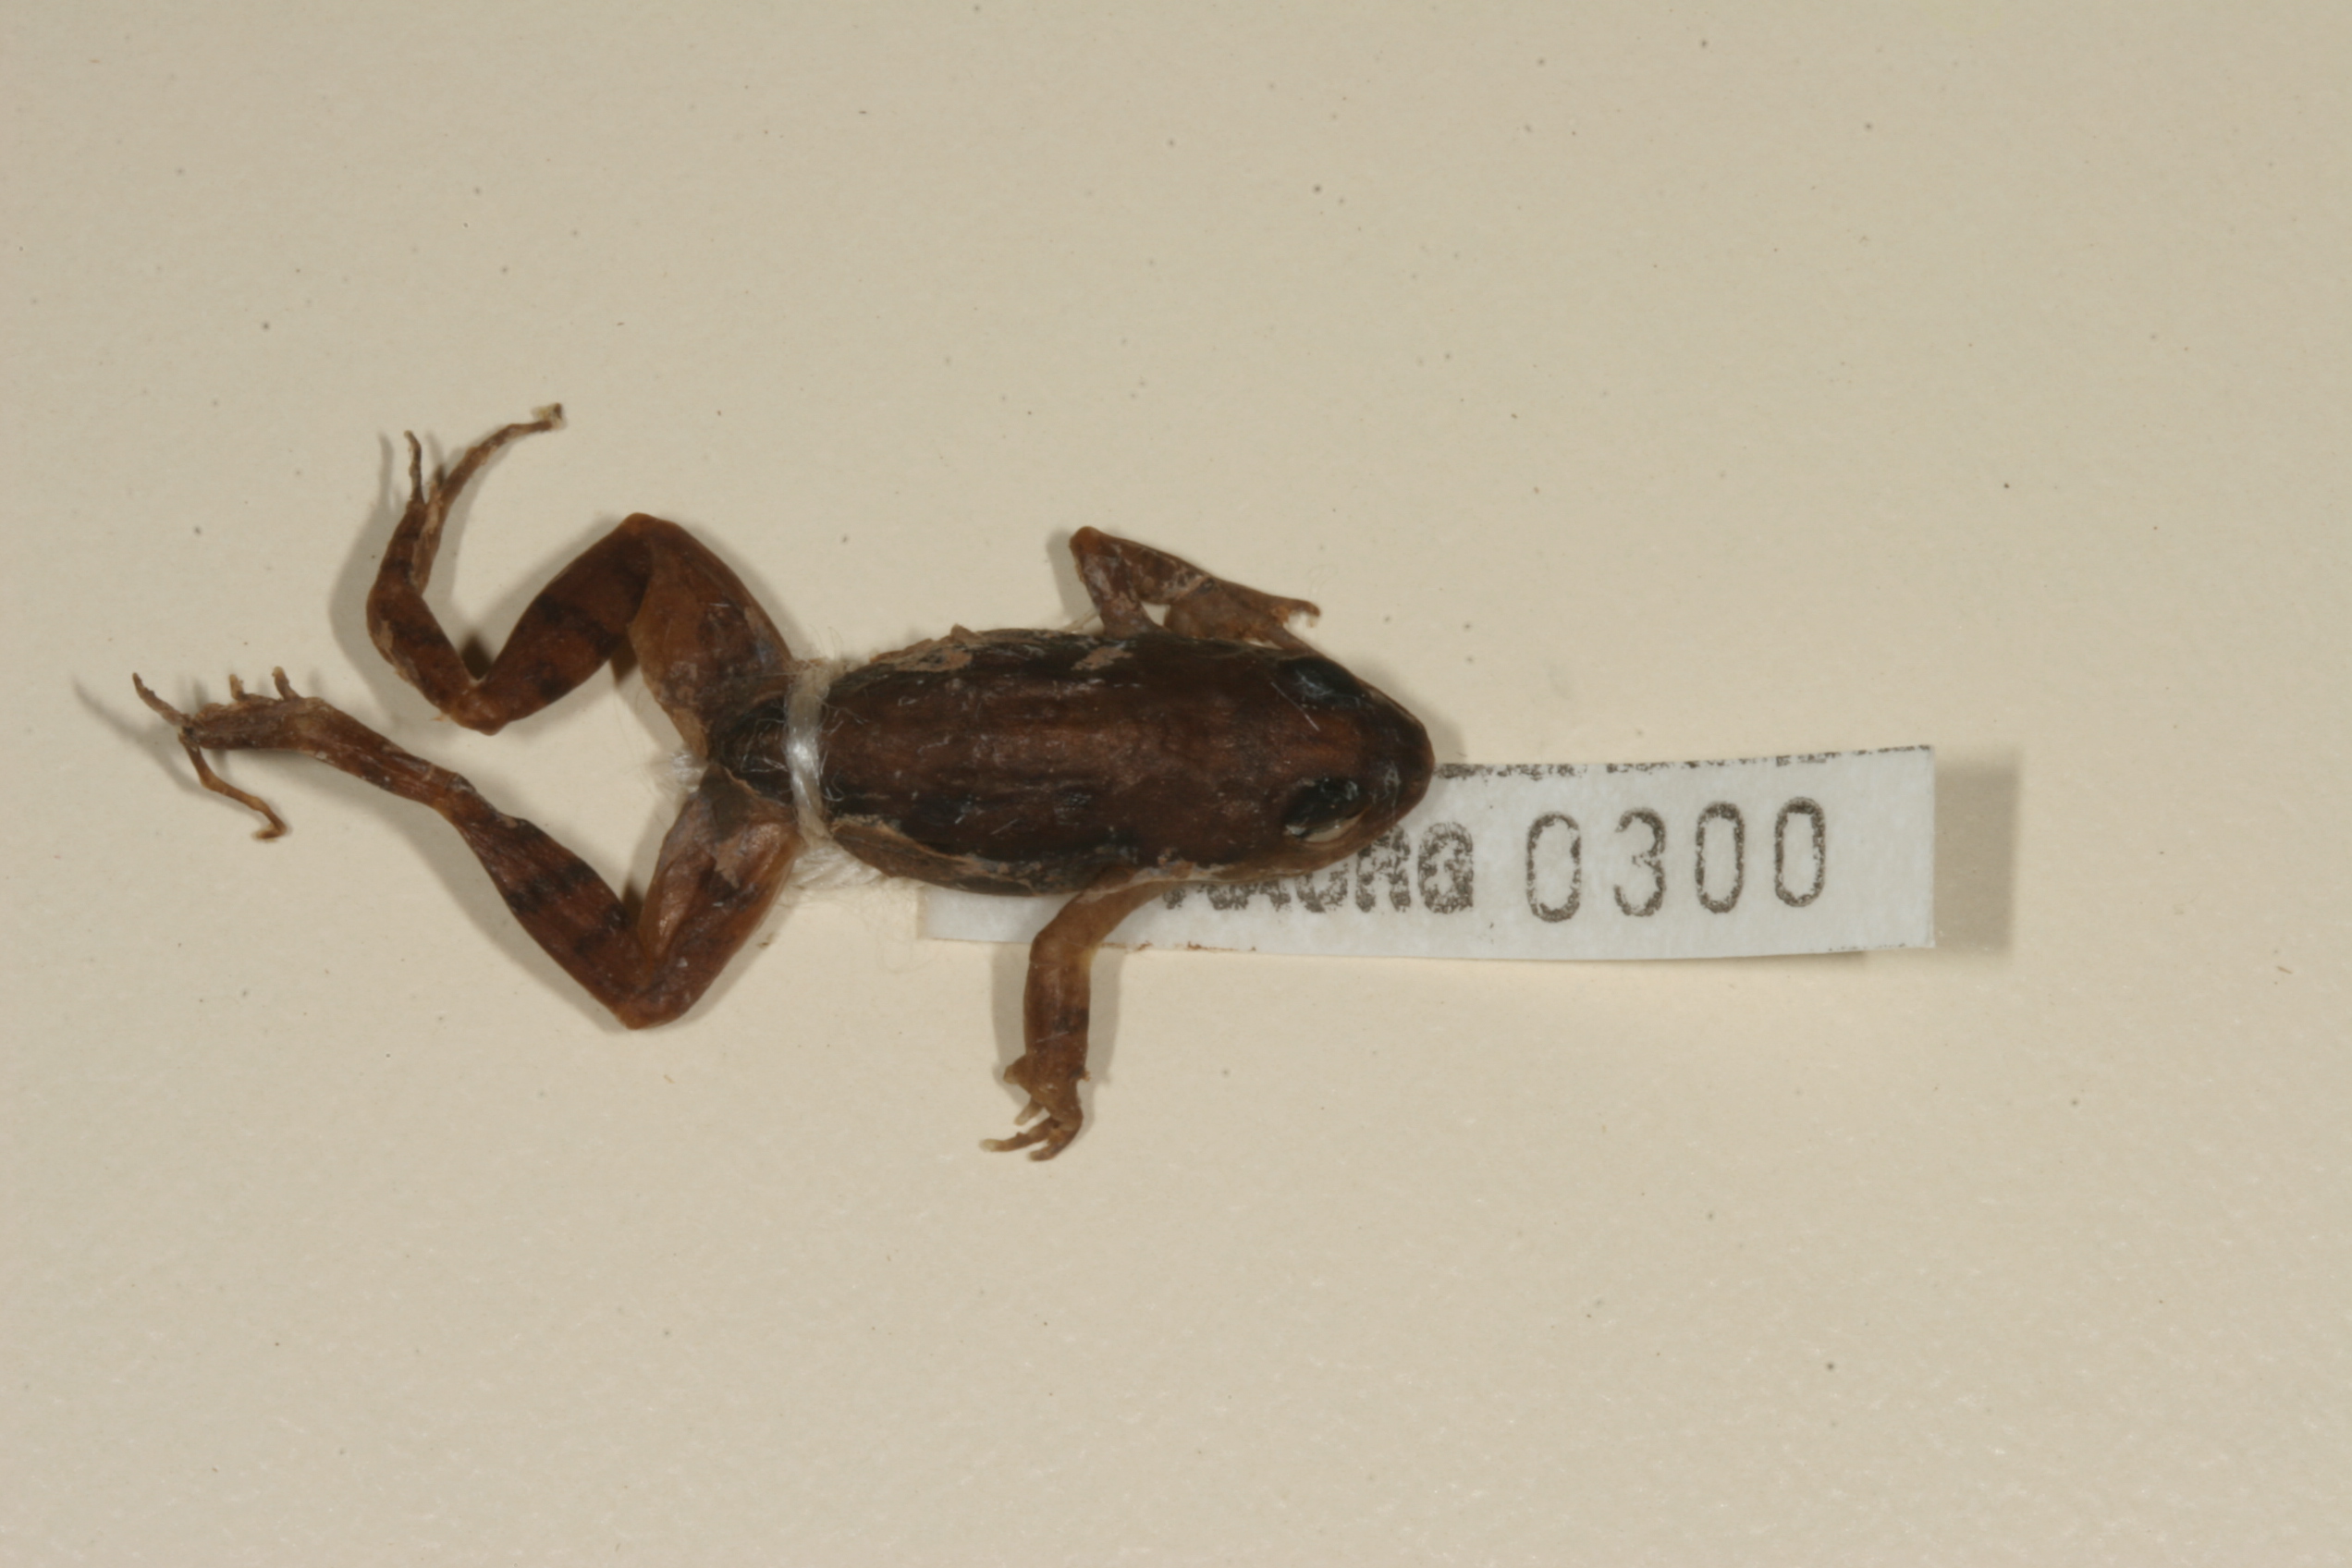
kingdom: Animalia
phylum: Chordata
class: Amphibia
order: Anura
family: Pyxicephalidae
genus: Cacosternum
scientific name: Cacosternum nanum
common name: Bronze dainty frog
